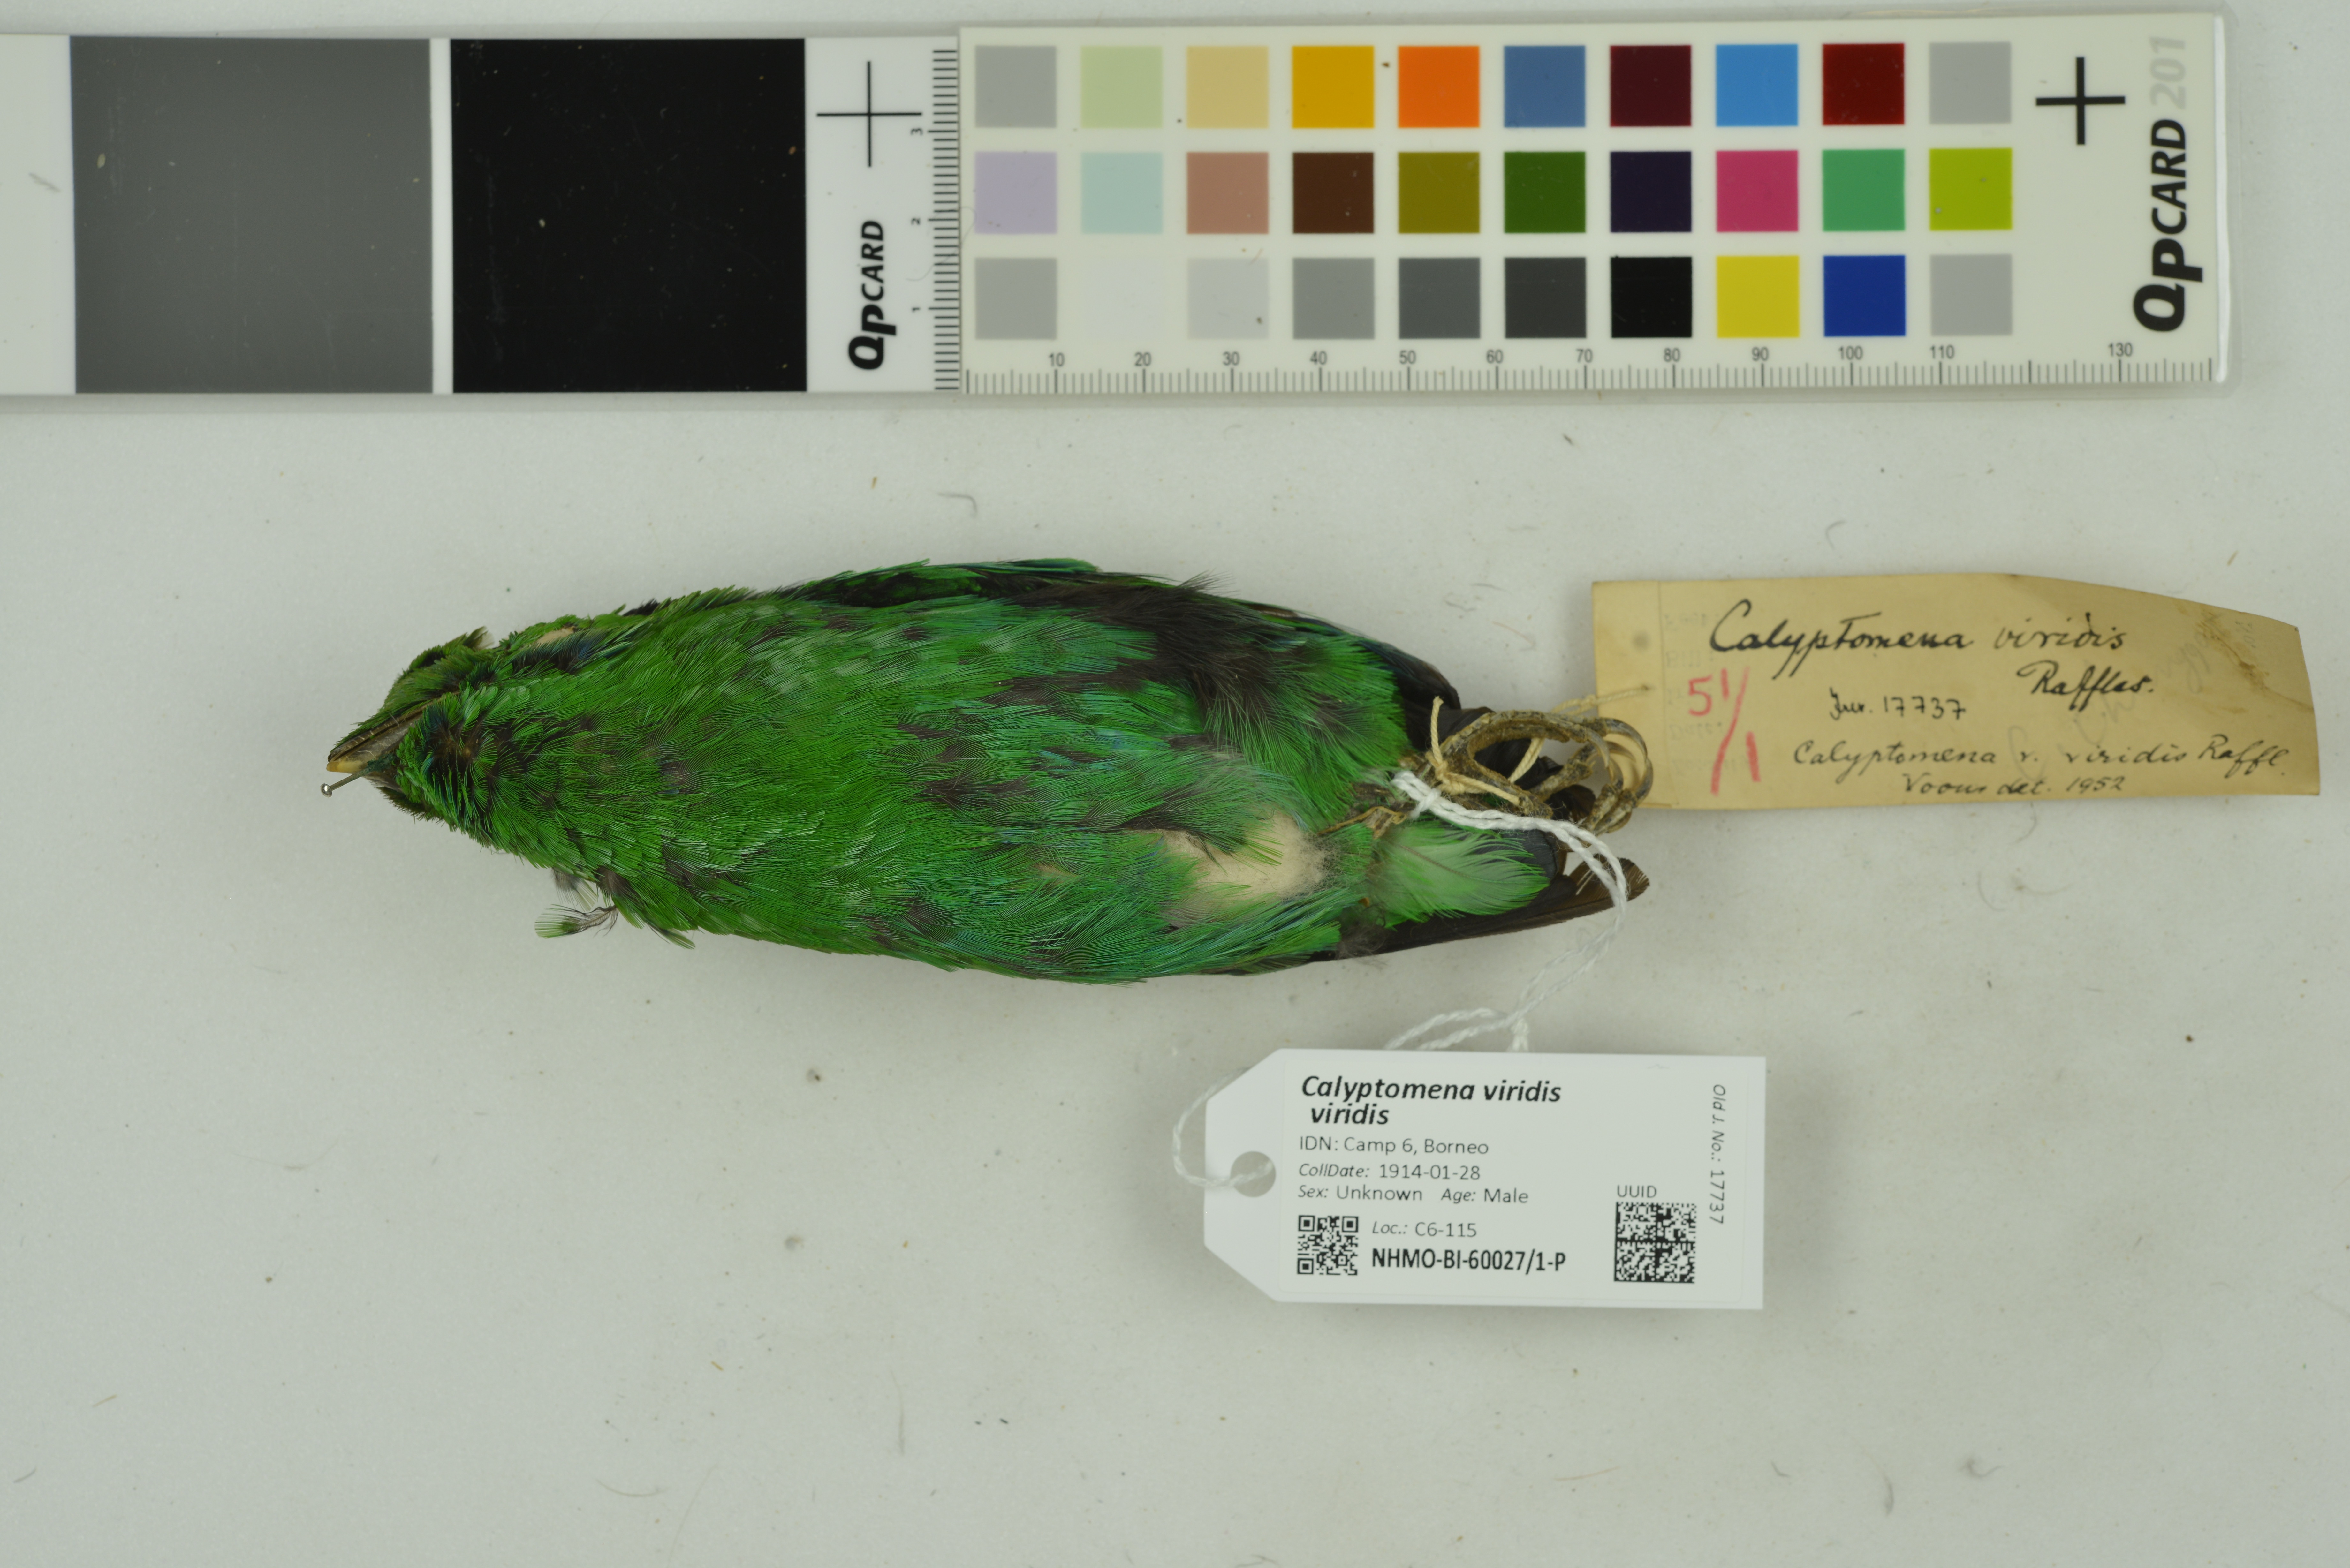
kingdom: Animalia
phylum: Chordata
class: Aves
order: Passeriformes
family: Eurylaimidae
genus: Calyptomena
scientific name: Calyptomena viridis
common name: Green broadbill
